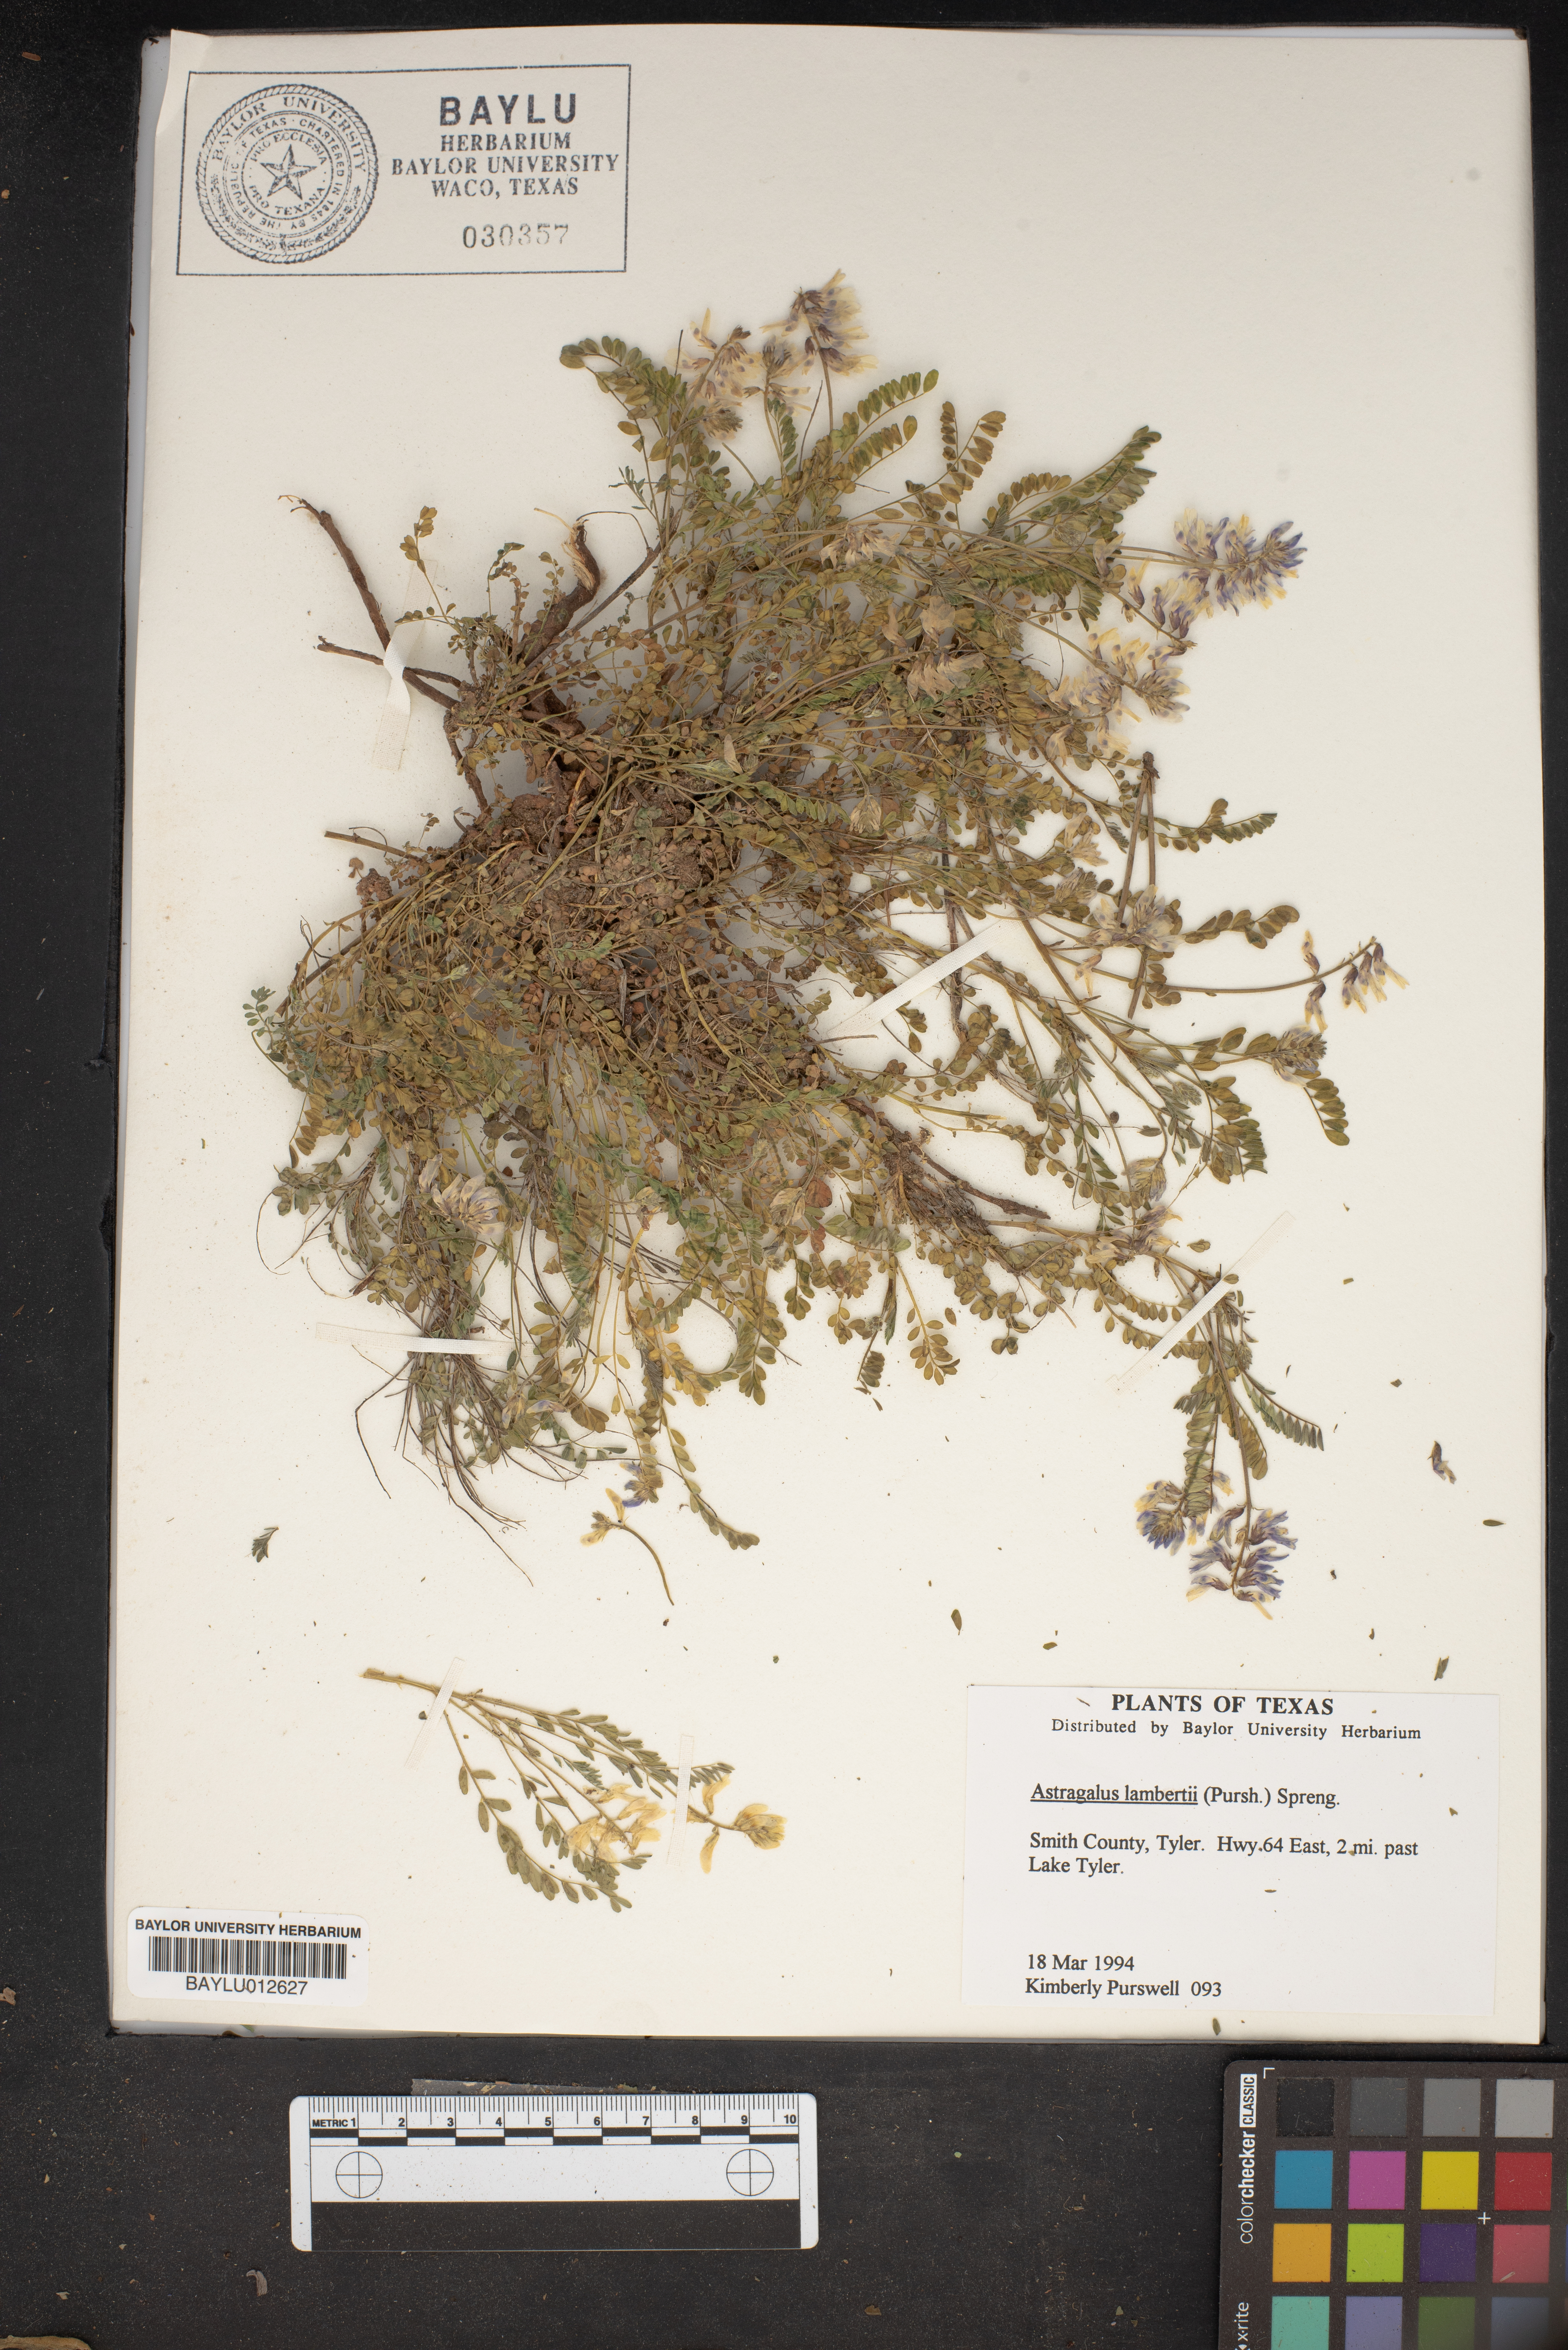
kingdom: Plantae
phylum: Tracheophyta
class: Magnoliopsida
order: Fabales
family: Fabaceae
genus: Oxytropis
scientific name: Oxytropis lambertii
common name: Purple locoweed
